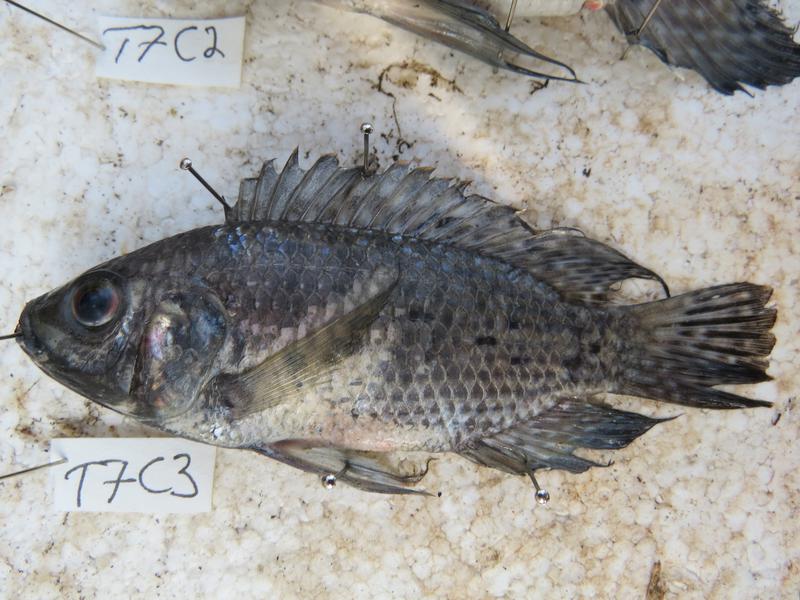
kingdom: Animalia
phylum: Chordata
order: Perciformes
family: Cichlidae
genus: Oreochromis
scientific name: Oreochromis leucostictus
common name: Blue spotted tilapia
